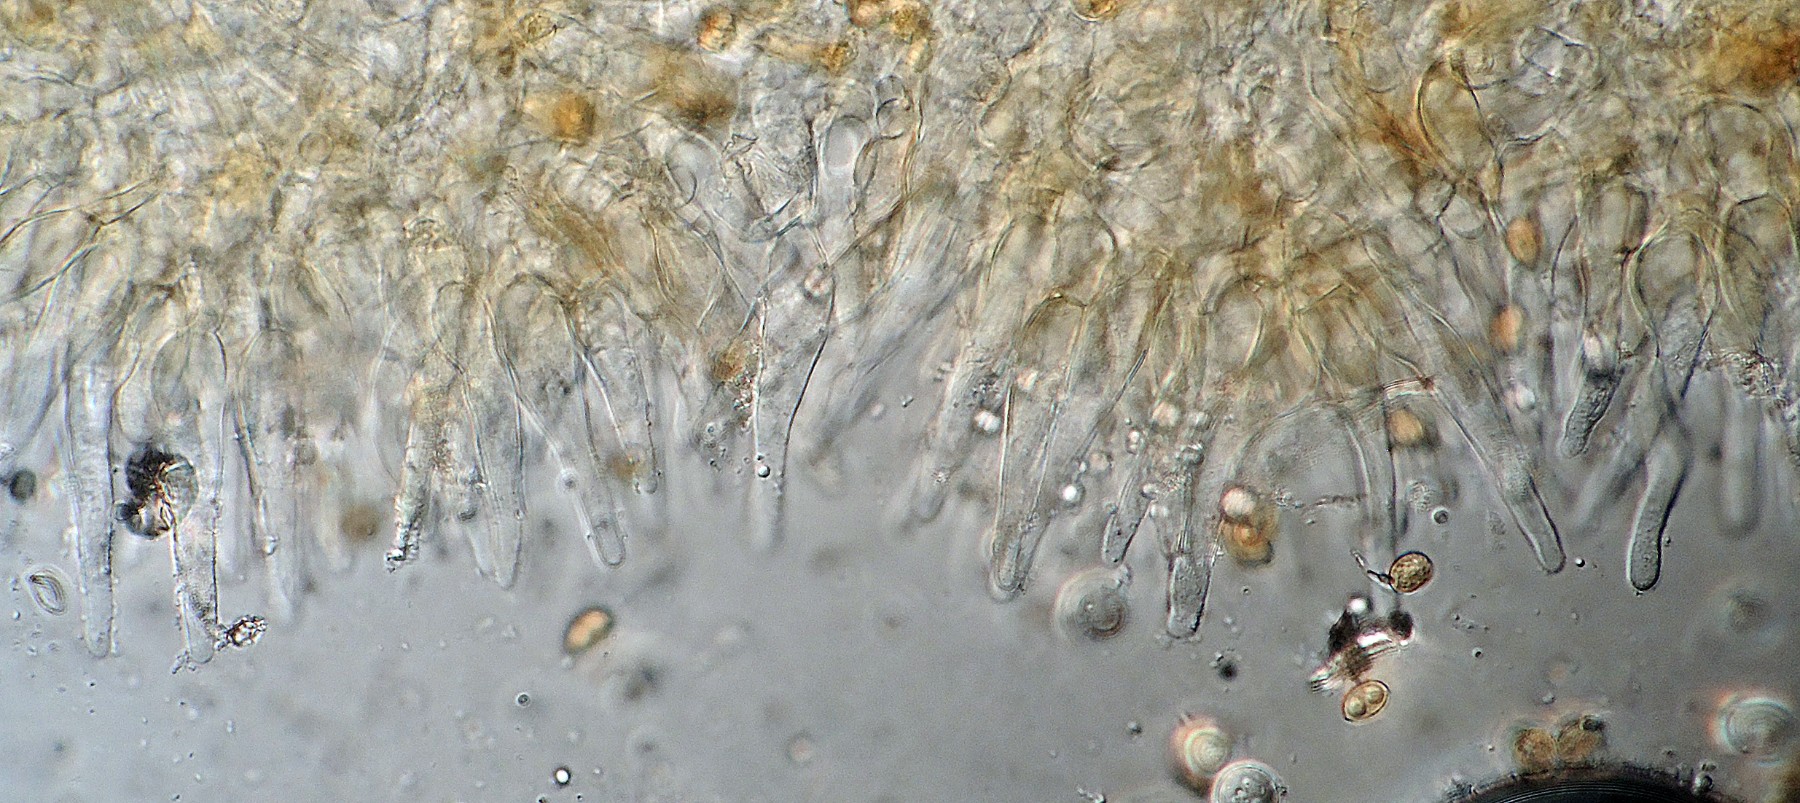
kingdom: Fungi
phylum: Basidiomycota
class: Agaricomycetes
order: Agaricales
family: Hymenogastraceae
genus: Galerina
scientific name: Galerina perplexa
